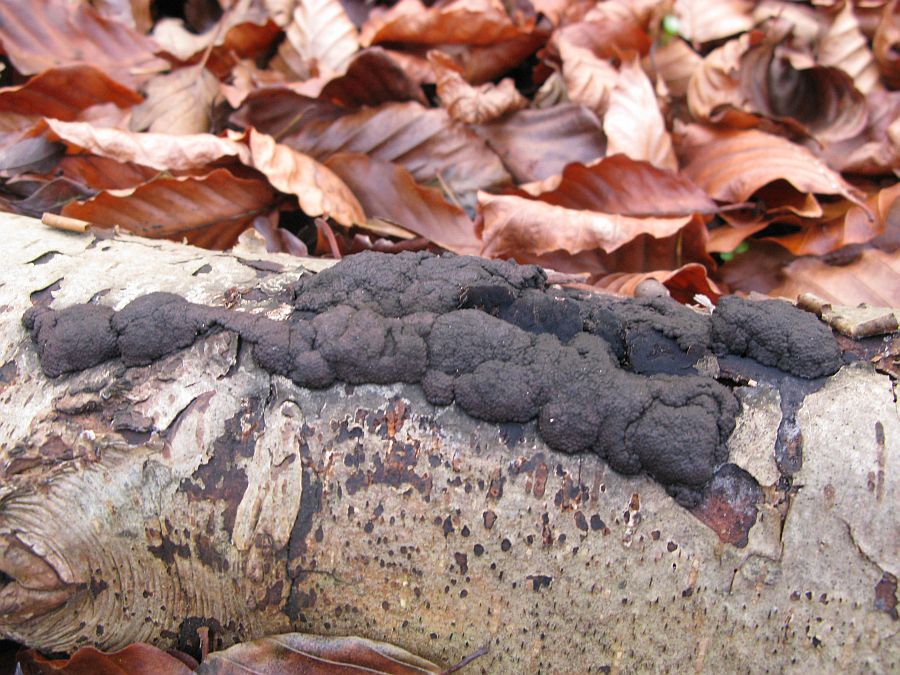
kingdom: Fungi
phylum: Ascomycota
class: Sordariomycetes
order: Xylariales
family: Hypoxylaceae
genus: Jackrogersella
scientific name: Jackrogersella multiformis
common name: foranderlig kulbær
